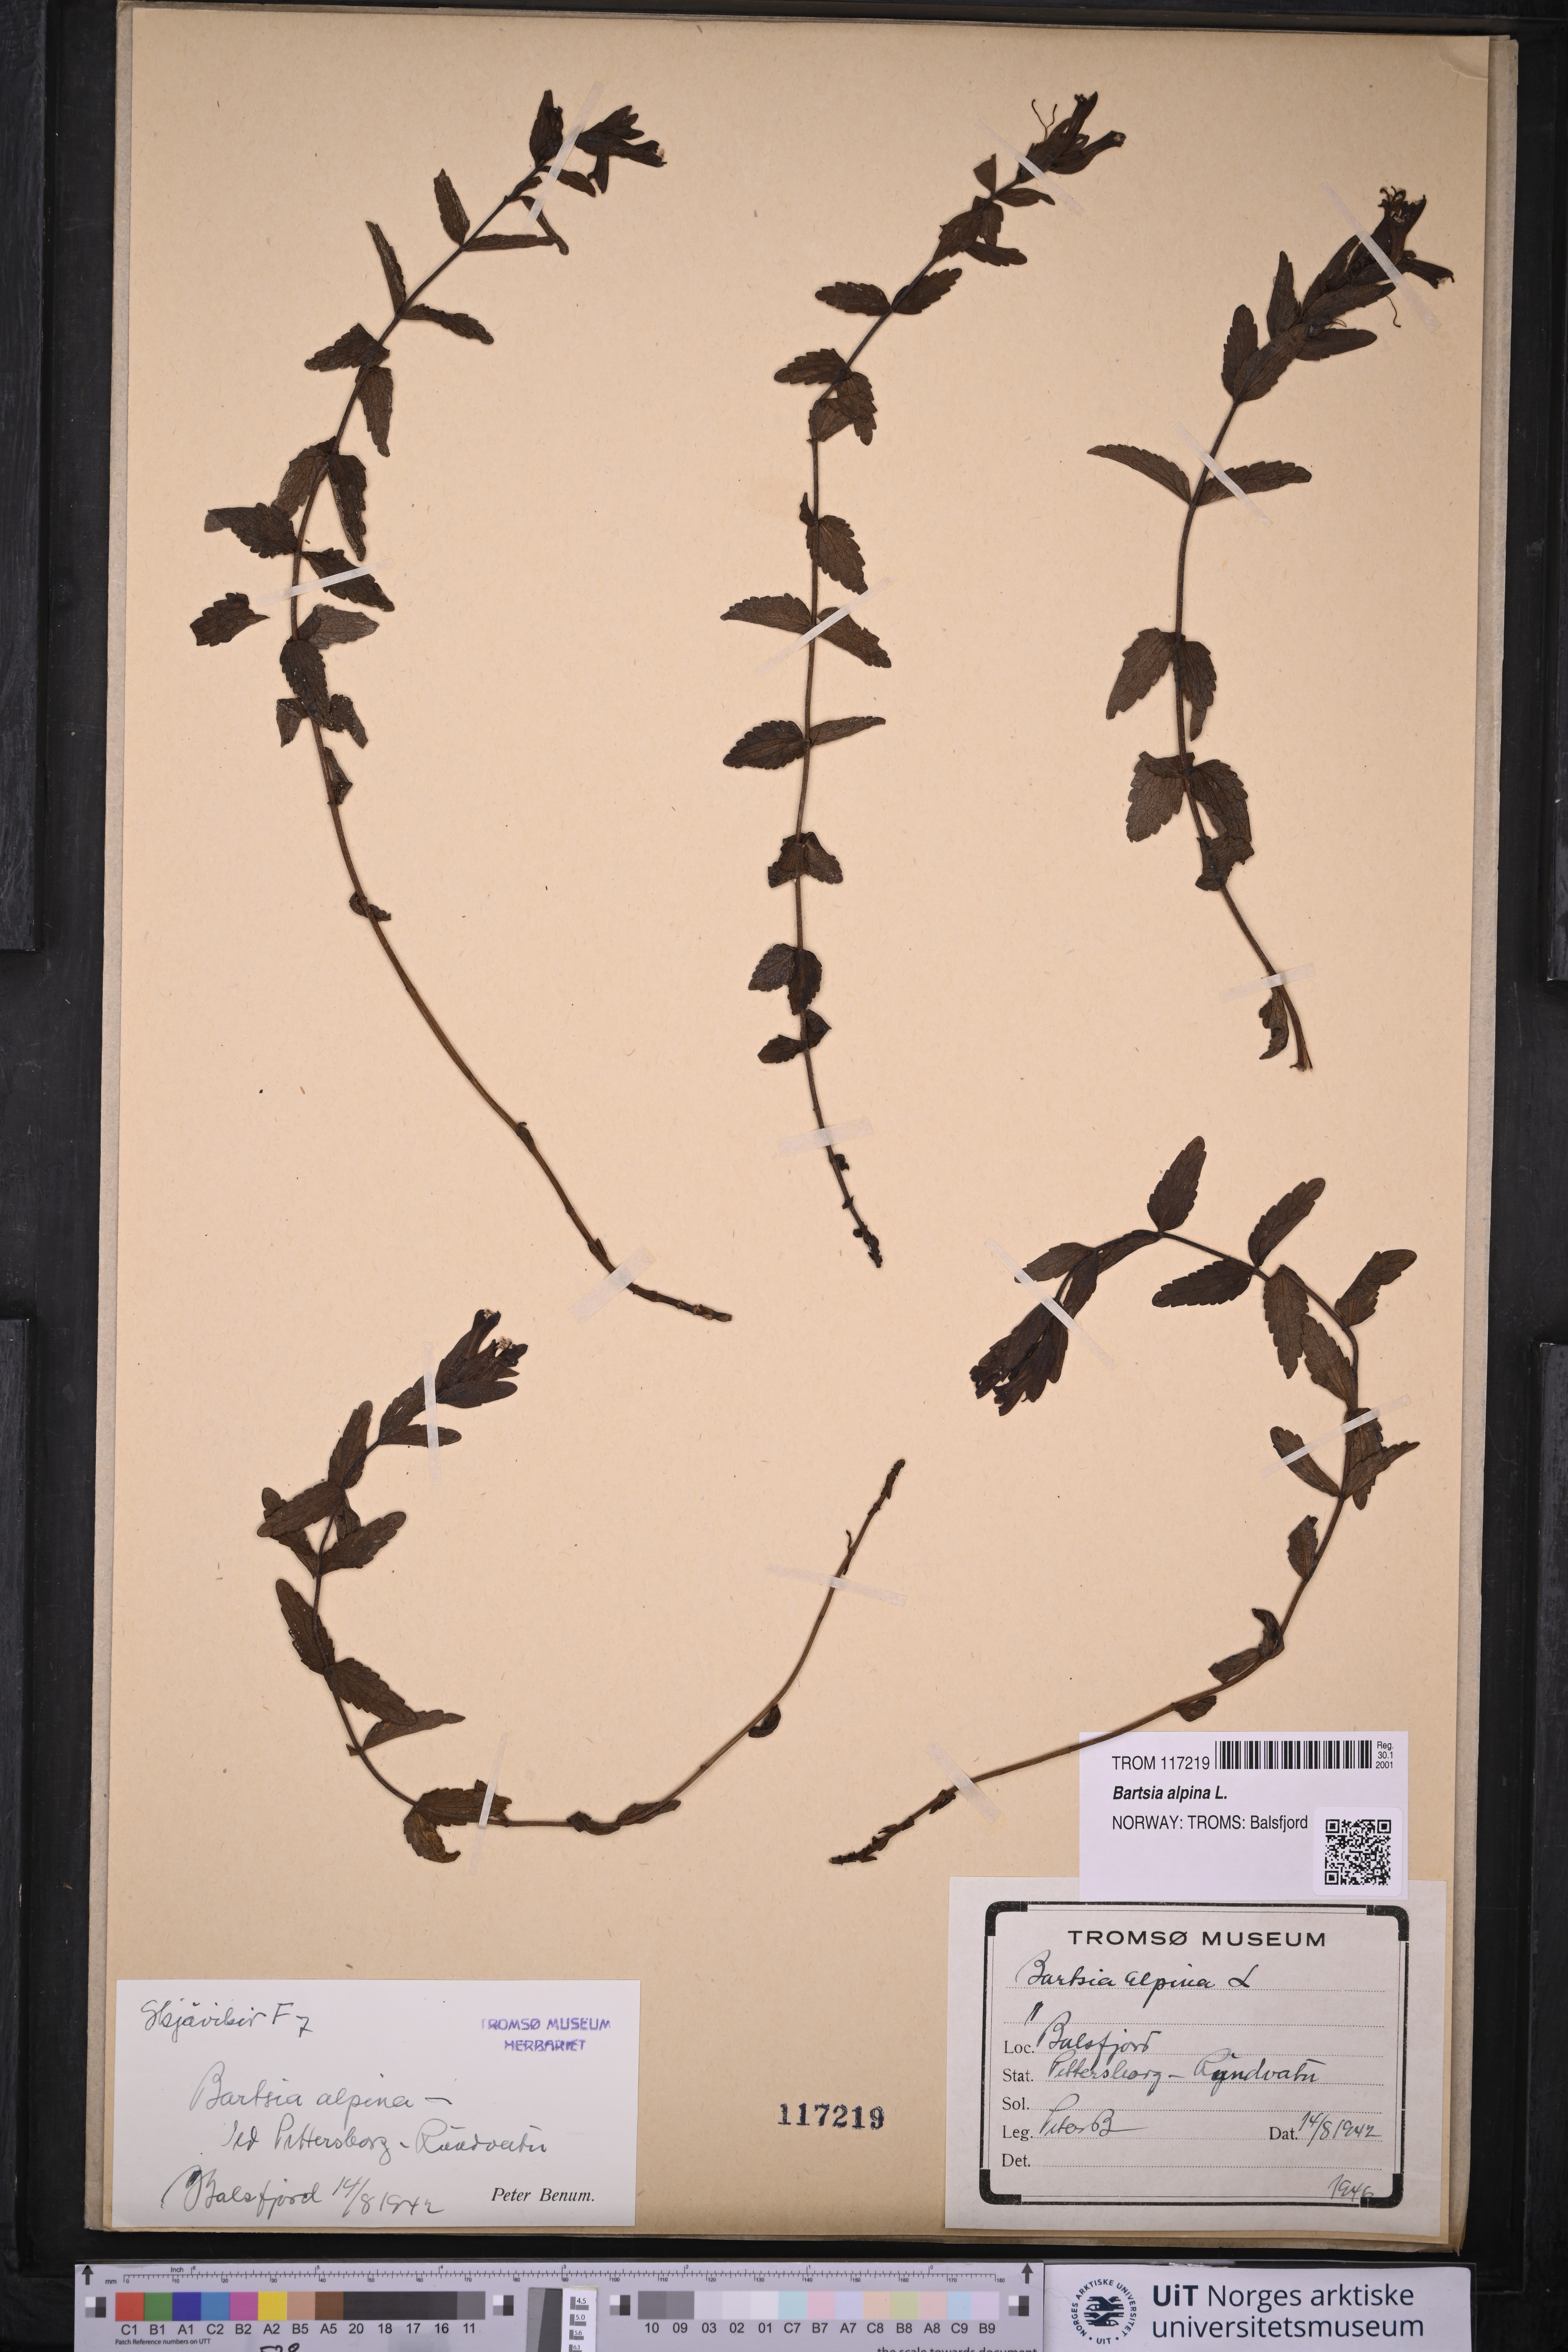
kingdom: Plantae
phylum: Tracheophyta
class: Magnoliopsida
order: Lamiales
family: Orobanchaceae
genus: Bartsia
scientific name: Bartsia alpina
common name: Alpine bartsia
